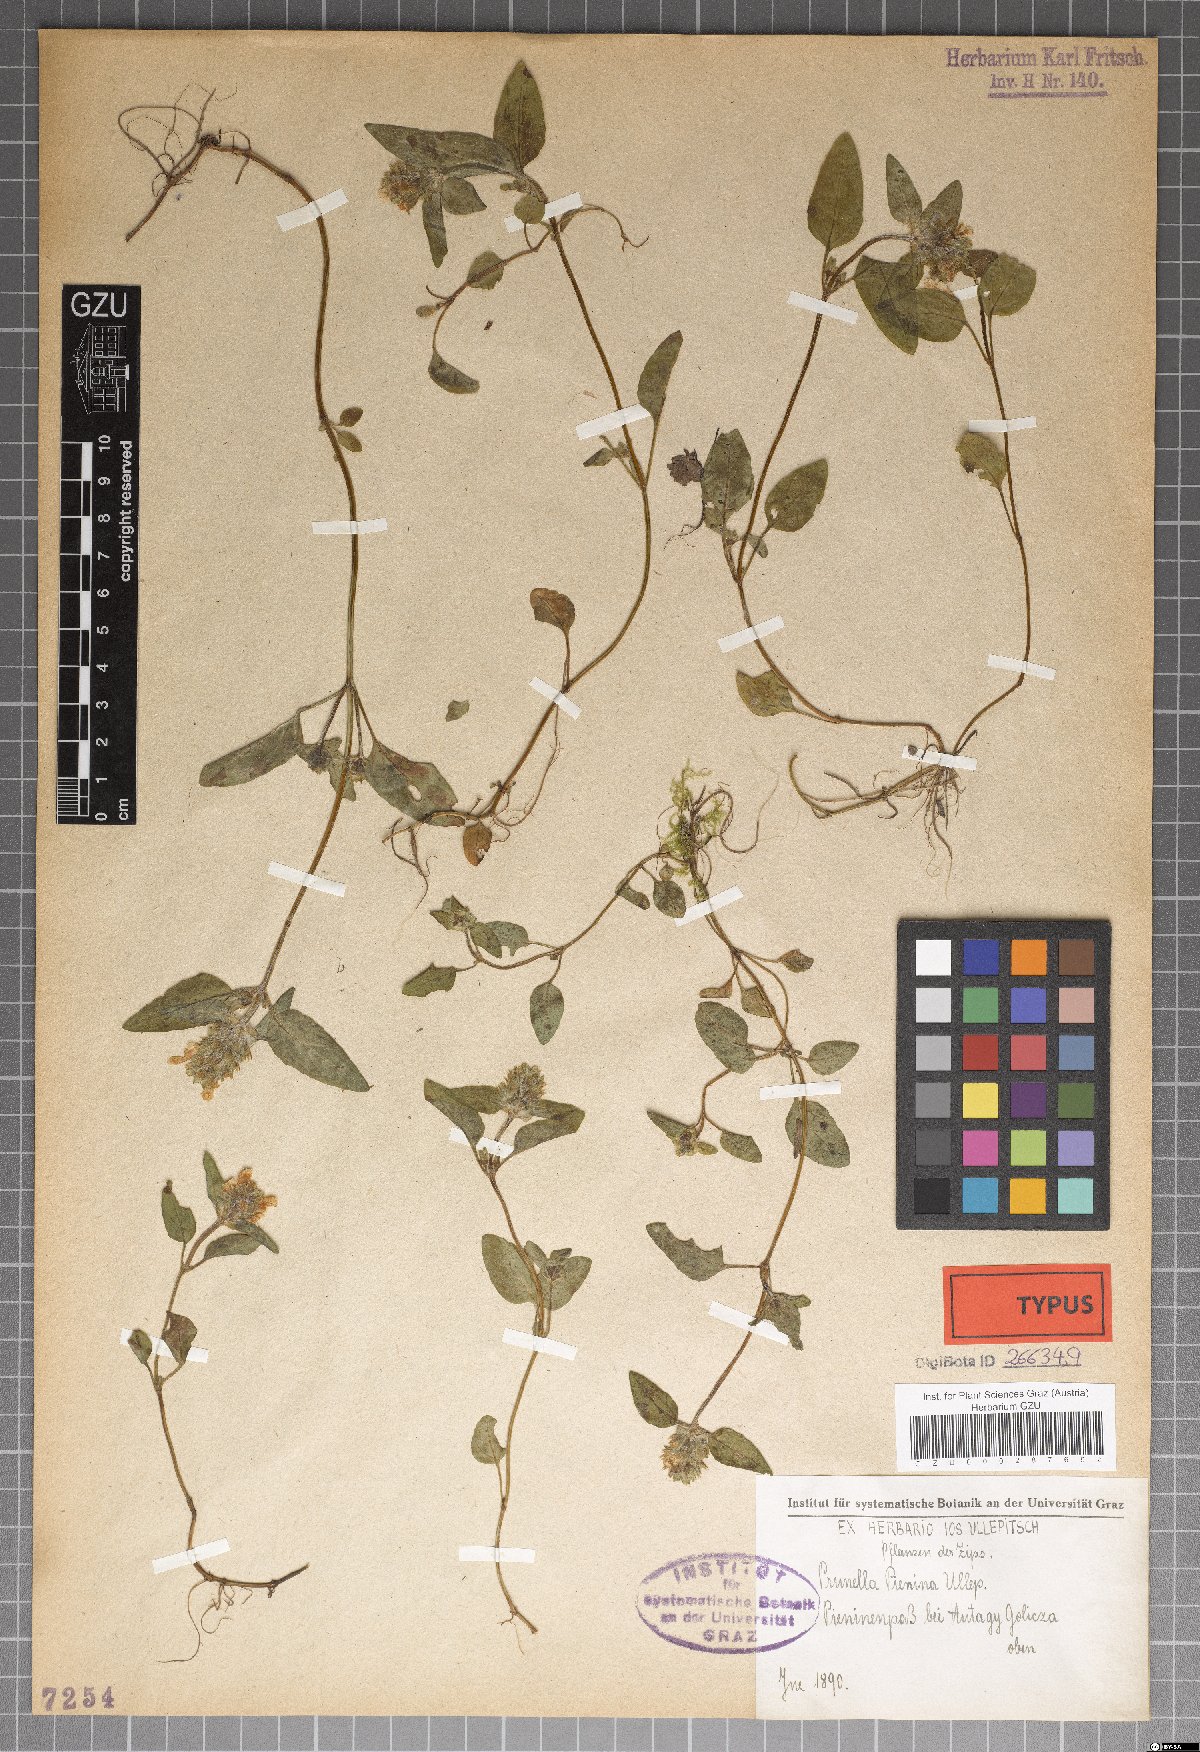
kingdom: Plantae
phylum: Tracheophyta
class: Magnoliopsida
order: Lamiales
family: Lamiaceae
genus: Prunella
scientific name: Prunella pienina
